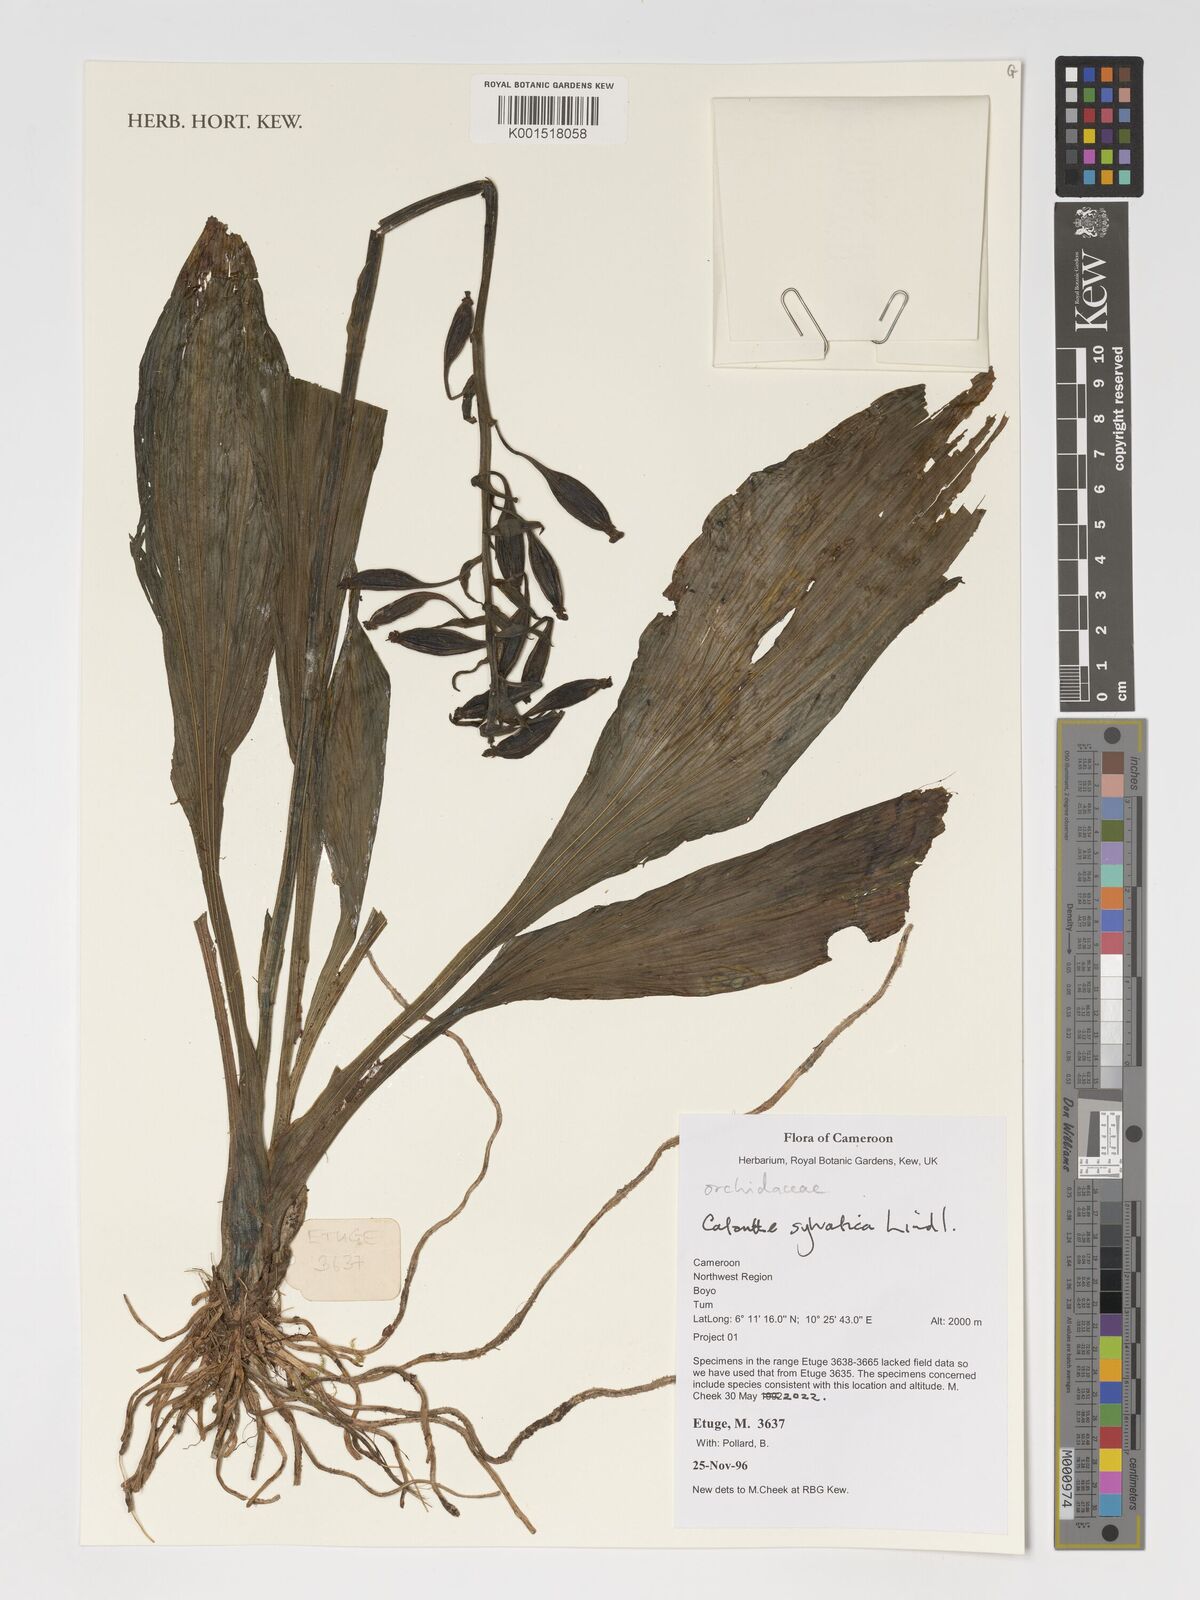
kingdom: Plantae
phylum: Tracheophyta
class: Liliopsida
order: Asparagales
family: Orchidaceae
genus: Calanthe
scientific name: Calanthe sylvatica
